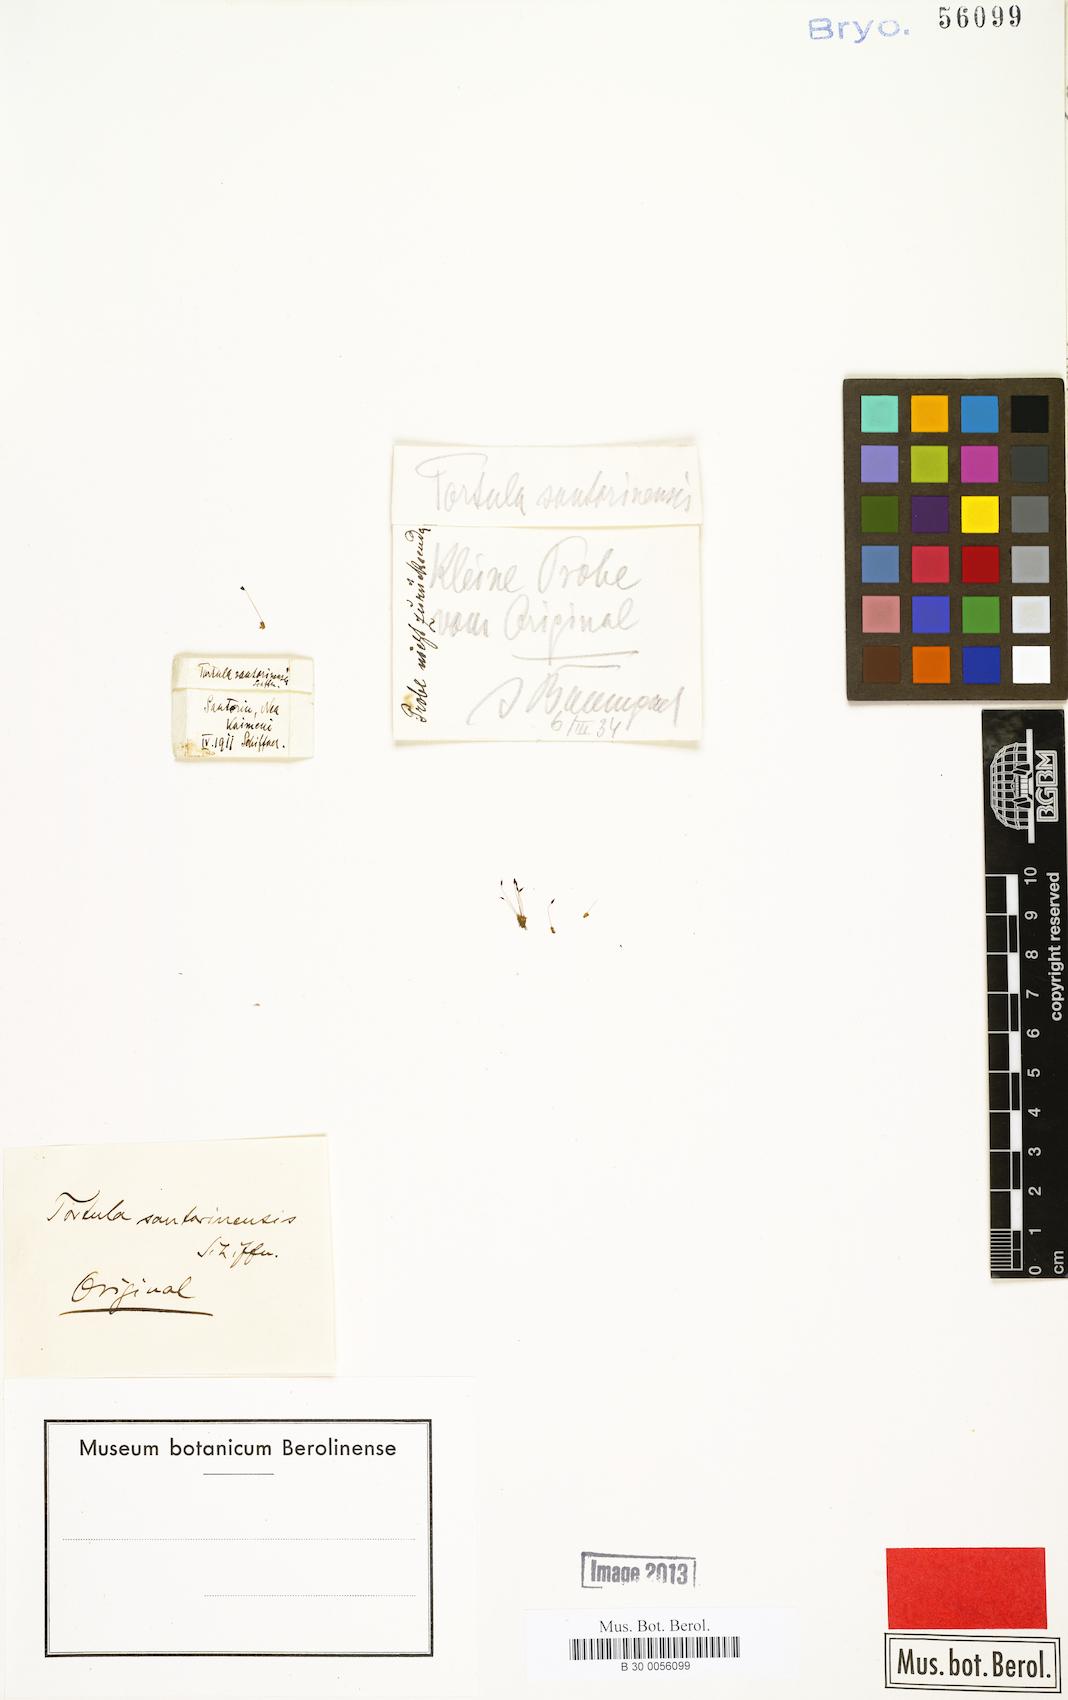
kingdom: Plantae
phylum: Bryophyta
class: Bryopsida
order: Pottiales
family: Pottiaceae
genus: Tortula
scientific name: Tortula solmsii
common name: Solms' screw-moss
